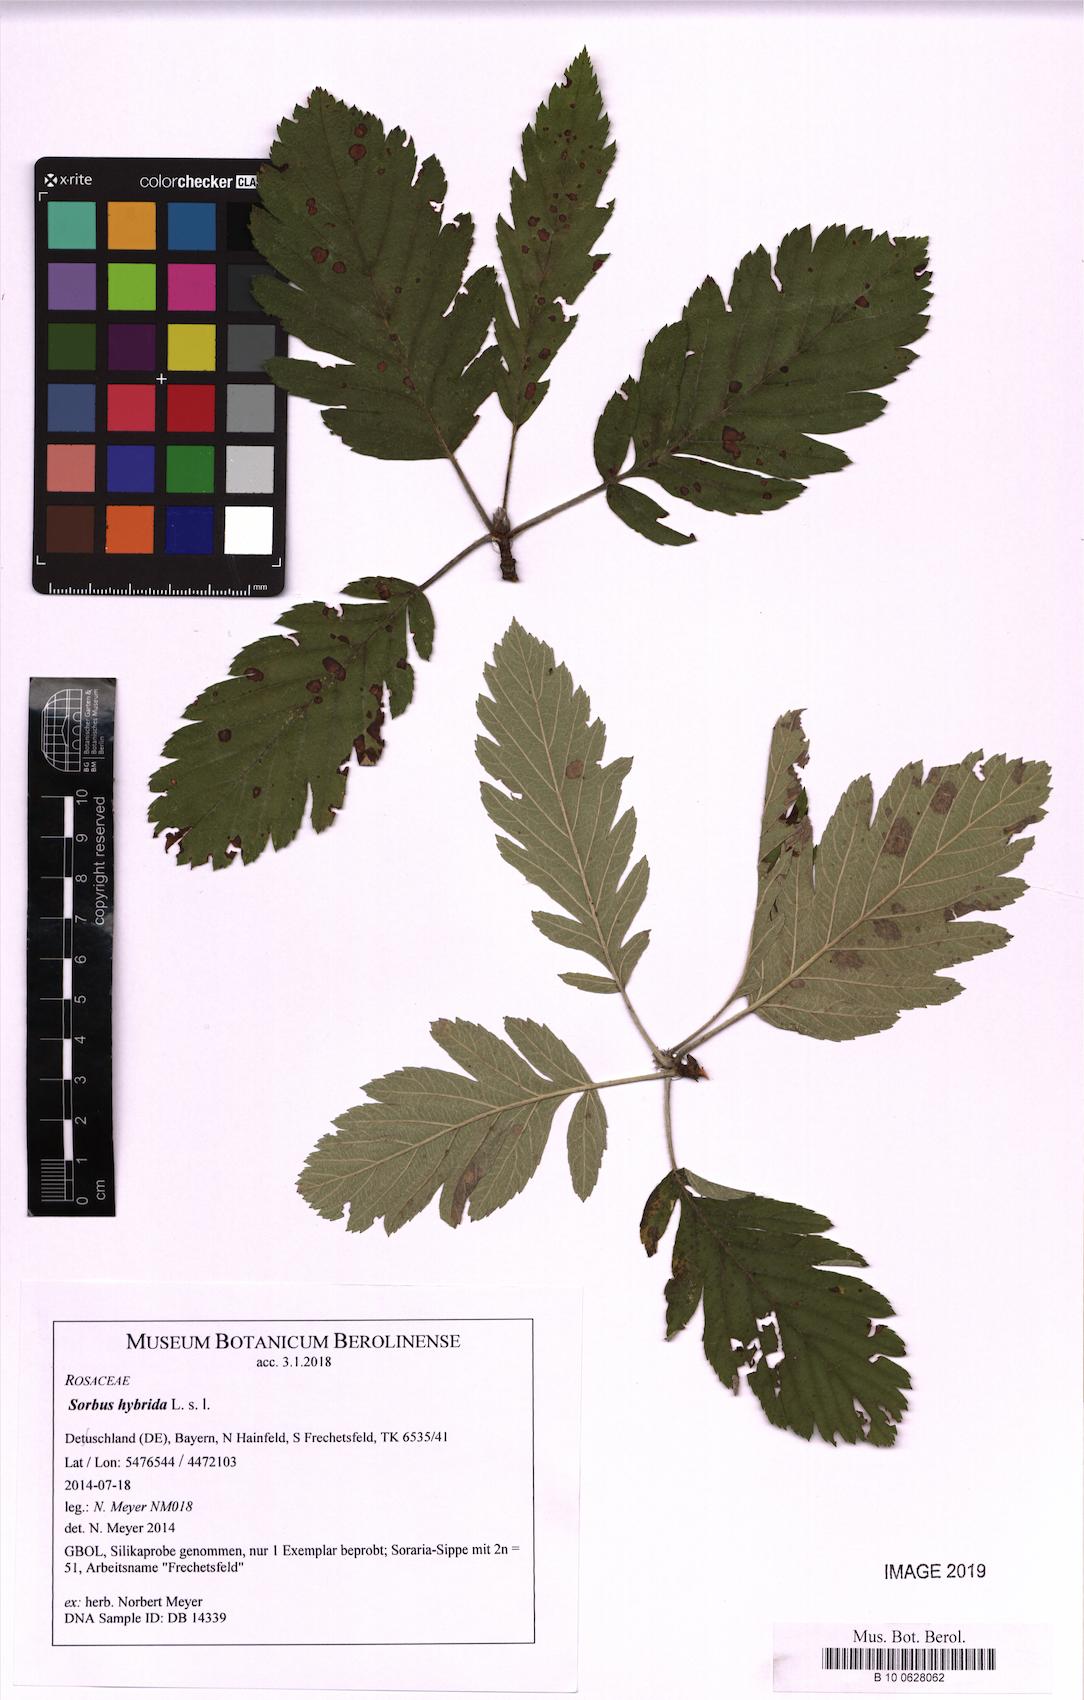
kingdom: Plantae
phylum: Tracheophyta
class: Magnoliopsida
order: Rosales
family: Rosaceae
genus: Hedlundia
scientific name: Hedlundia hybrida
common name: Swedish service-tree
